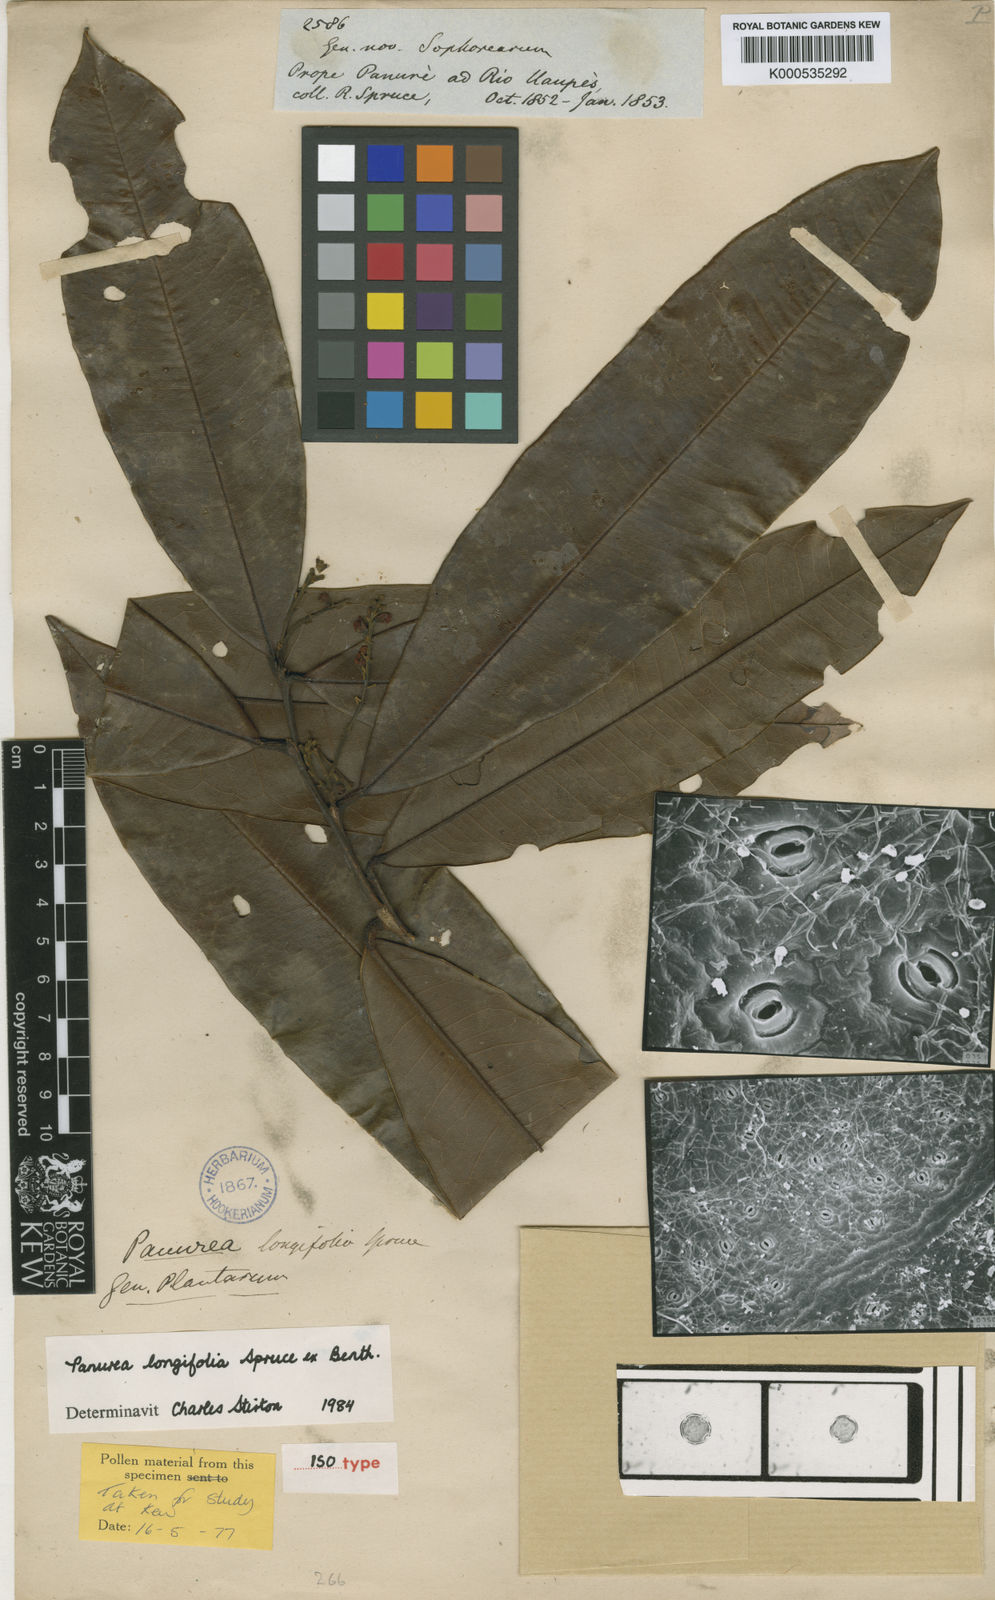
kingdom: Plantae
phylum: Tracheophyta
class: Magnoliopsida
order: Fabales
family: Fabaceae
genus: Panurea
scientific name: Panurea longifolia
